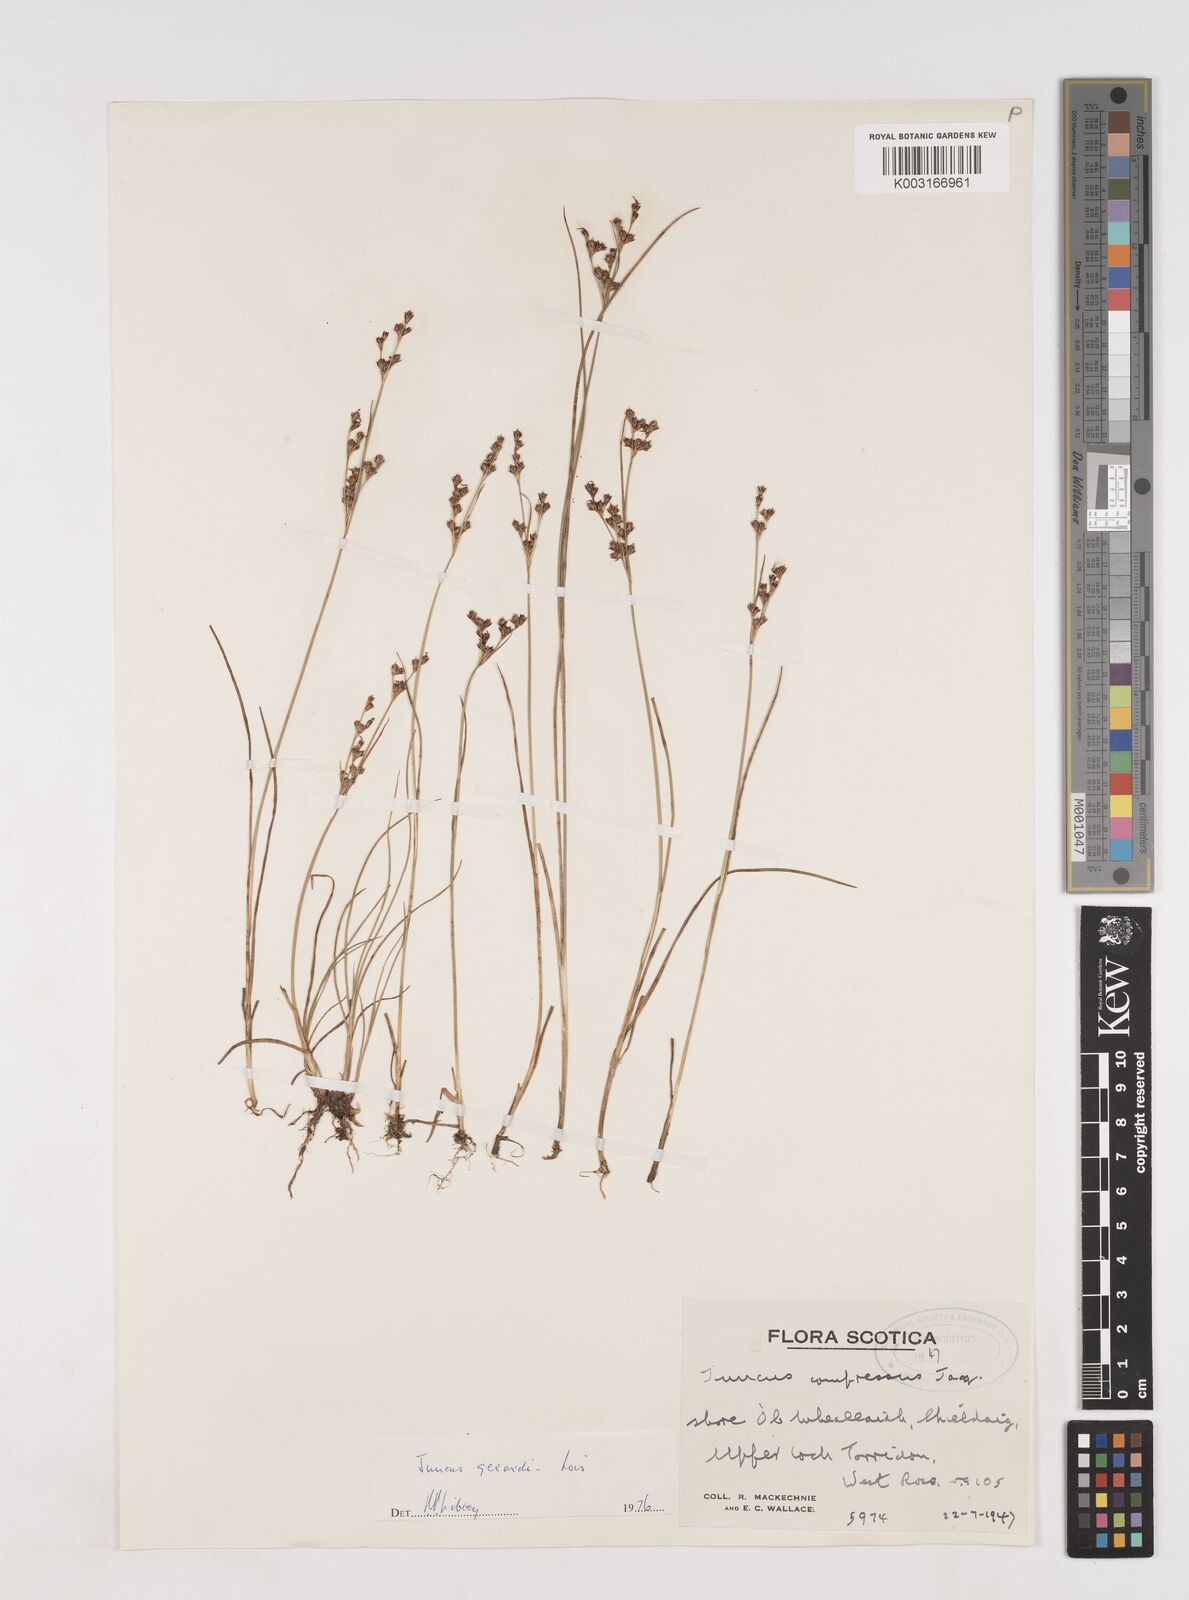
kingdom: Plantae
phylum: Tracheophyta
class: Liliopsida
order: Poales
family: Juncaceae
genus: Juncus
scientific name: Juncus gerardi
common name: Saltmarsh rush
